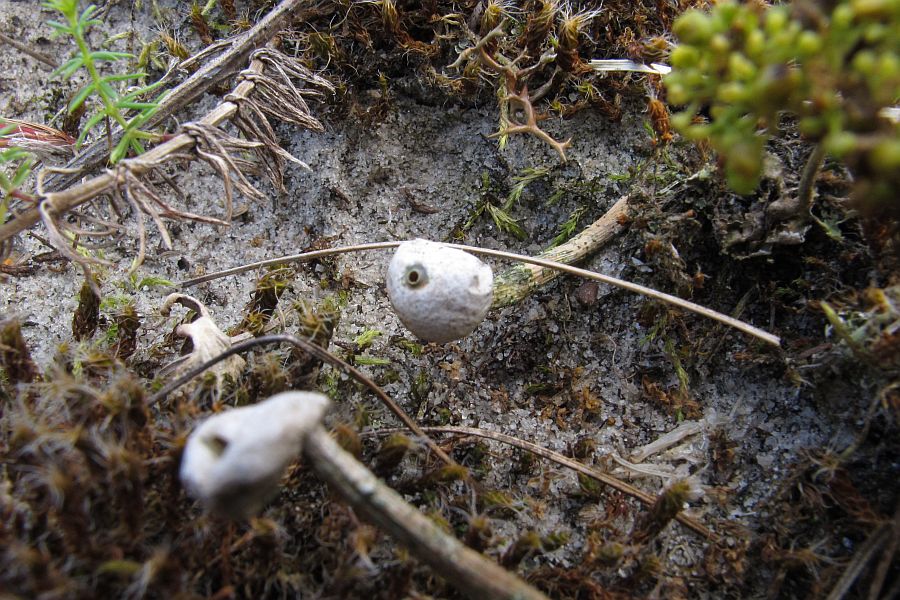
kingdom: Fungi
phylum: Basidiomycota
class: Agaricomycetes
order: Agaricales
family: Agaricaceae
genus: Tulostoma
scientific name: Tulostoma brumale
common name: vinter-stilkbovist
